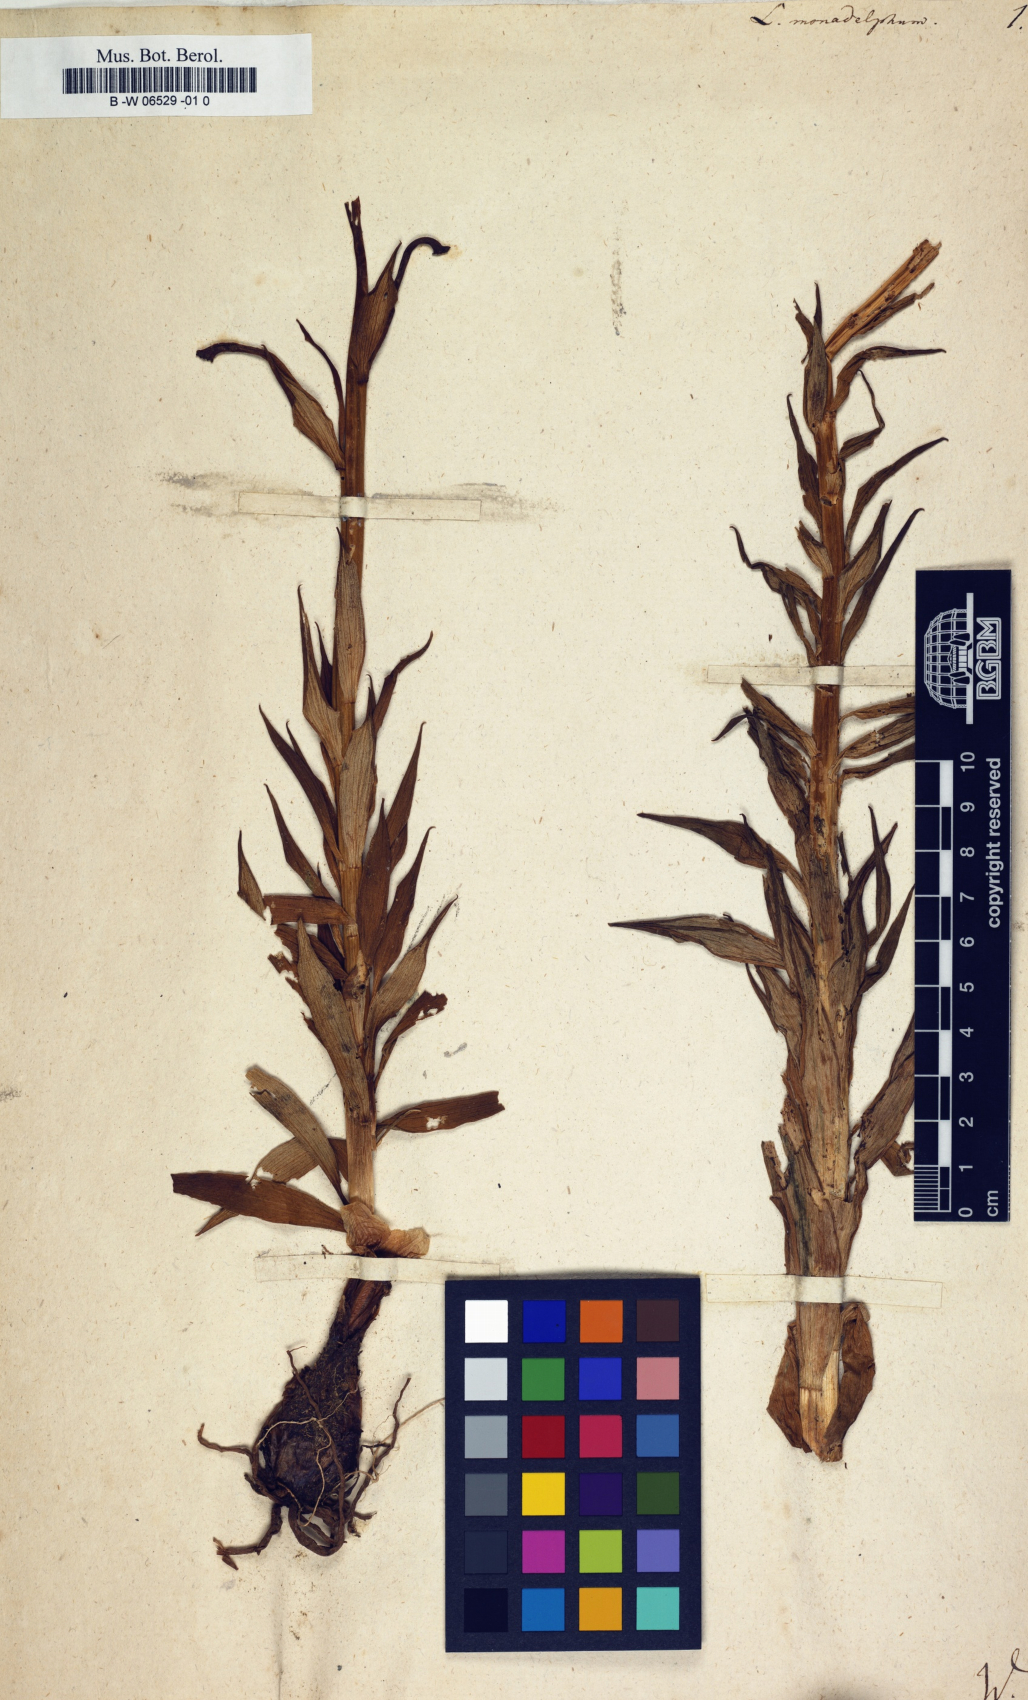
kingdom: Plantae
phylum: Tracheophyta
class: Liliopsida
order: Liliales
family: Liliaceae
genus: Lilium
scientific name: Lilium monadelphum
